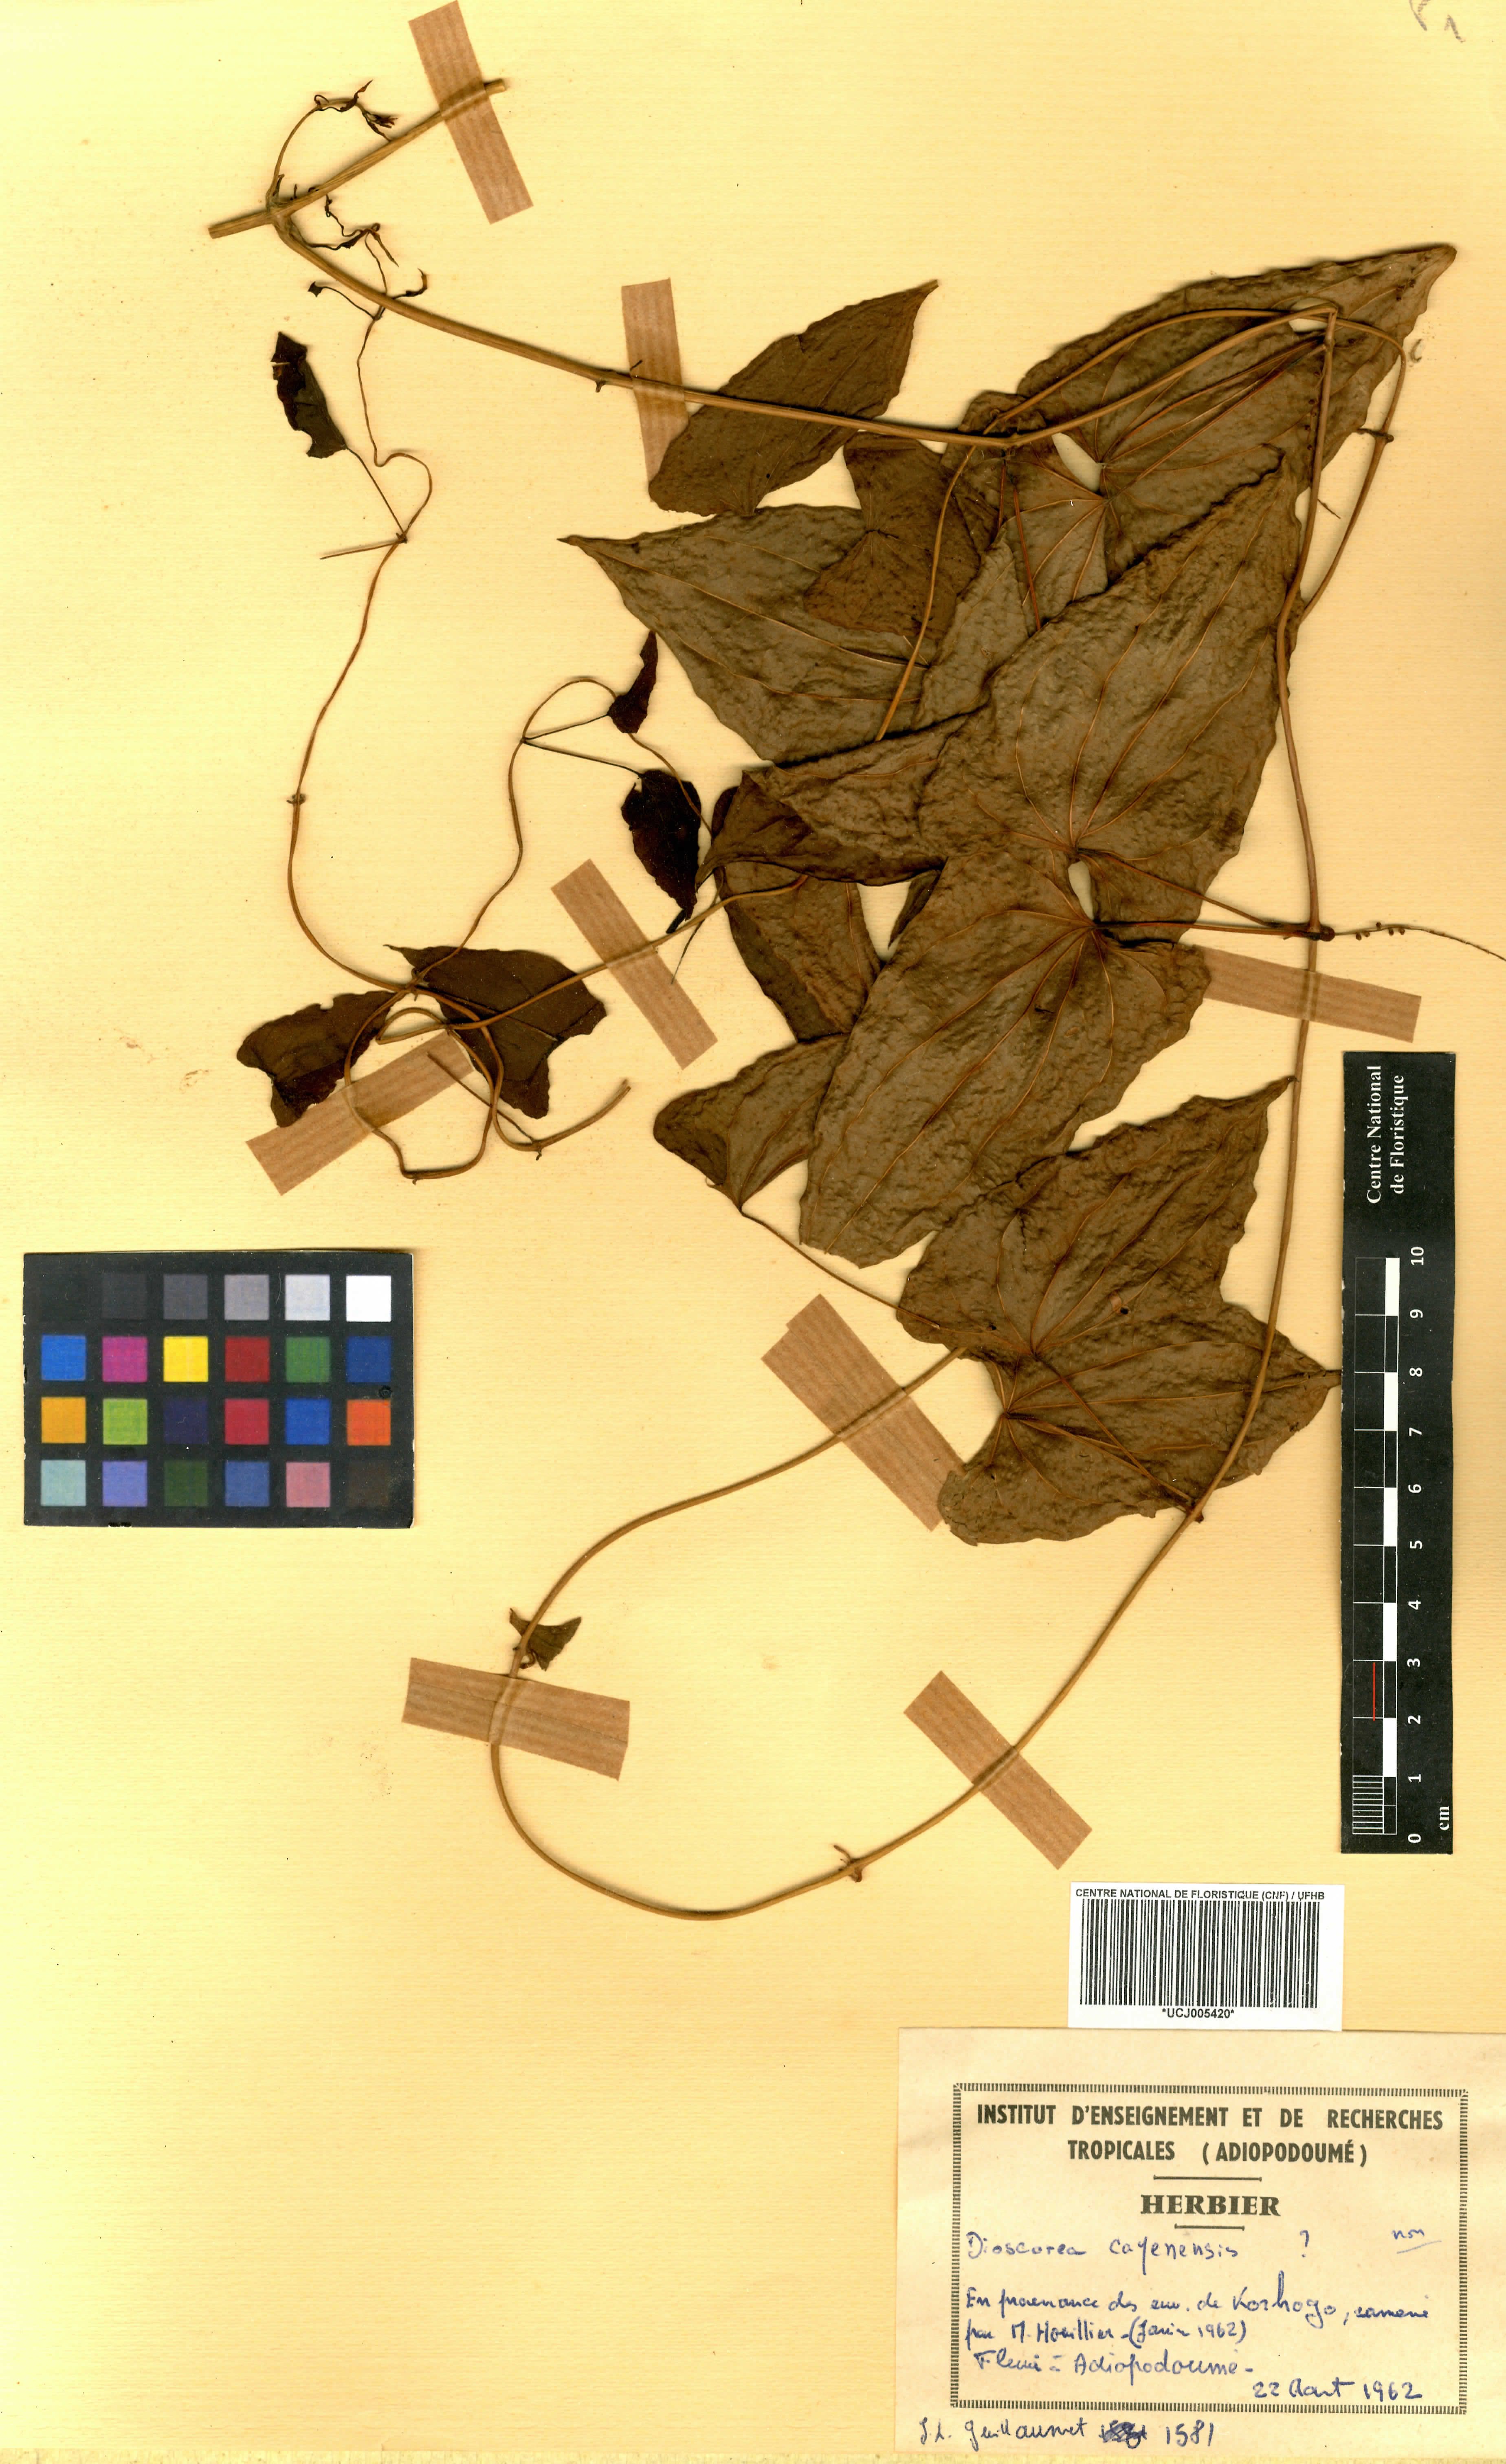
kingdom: Plantae
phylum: Tracheophyta
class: Liliopsida
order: Dioscoreales
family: Dioscoreaceae
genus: Dioscorea
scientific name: Dioscorea bulbifera
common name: Air yam
